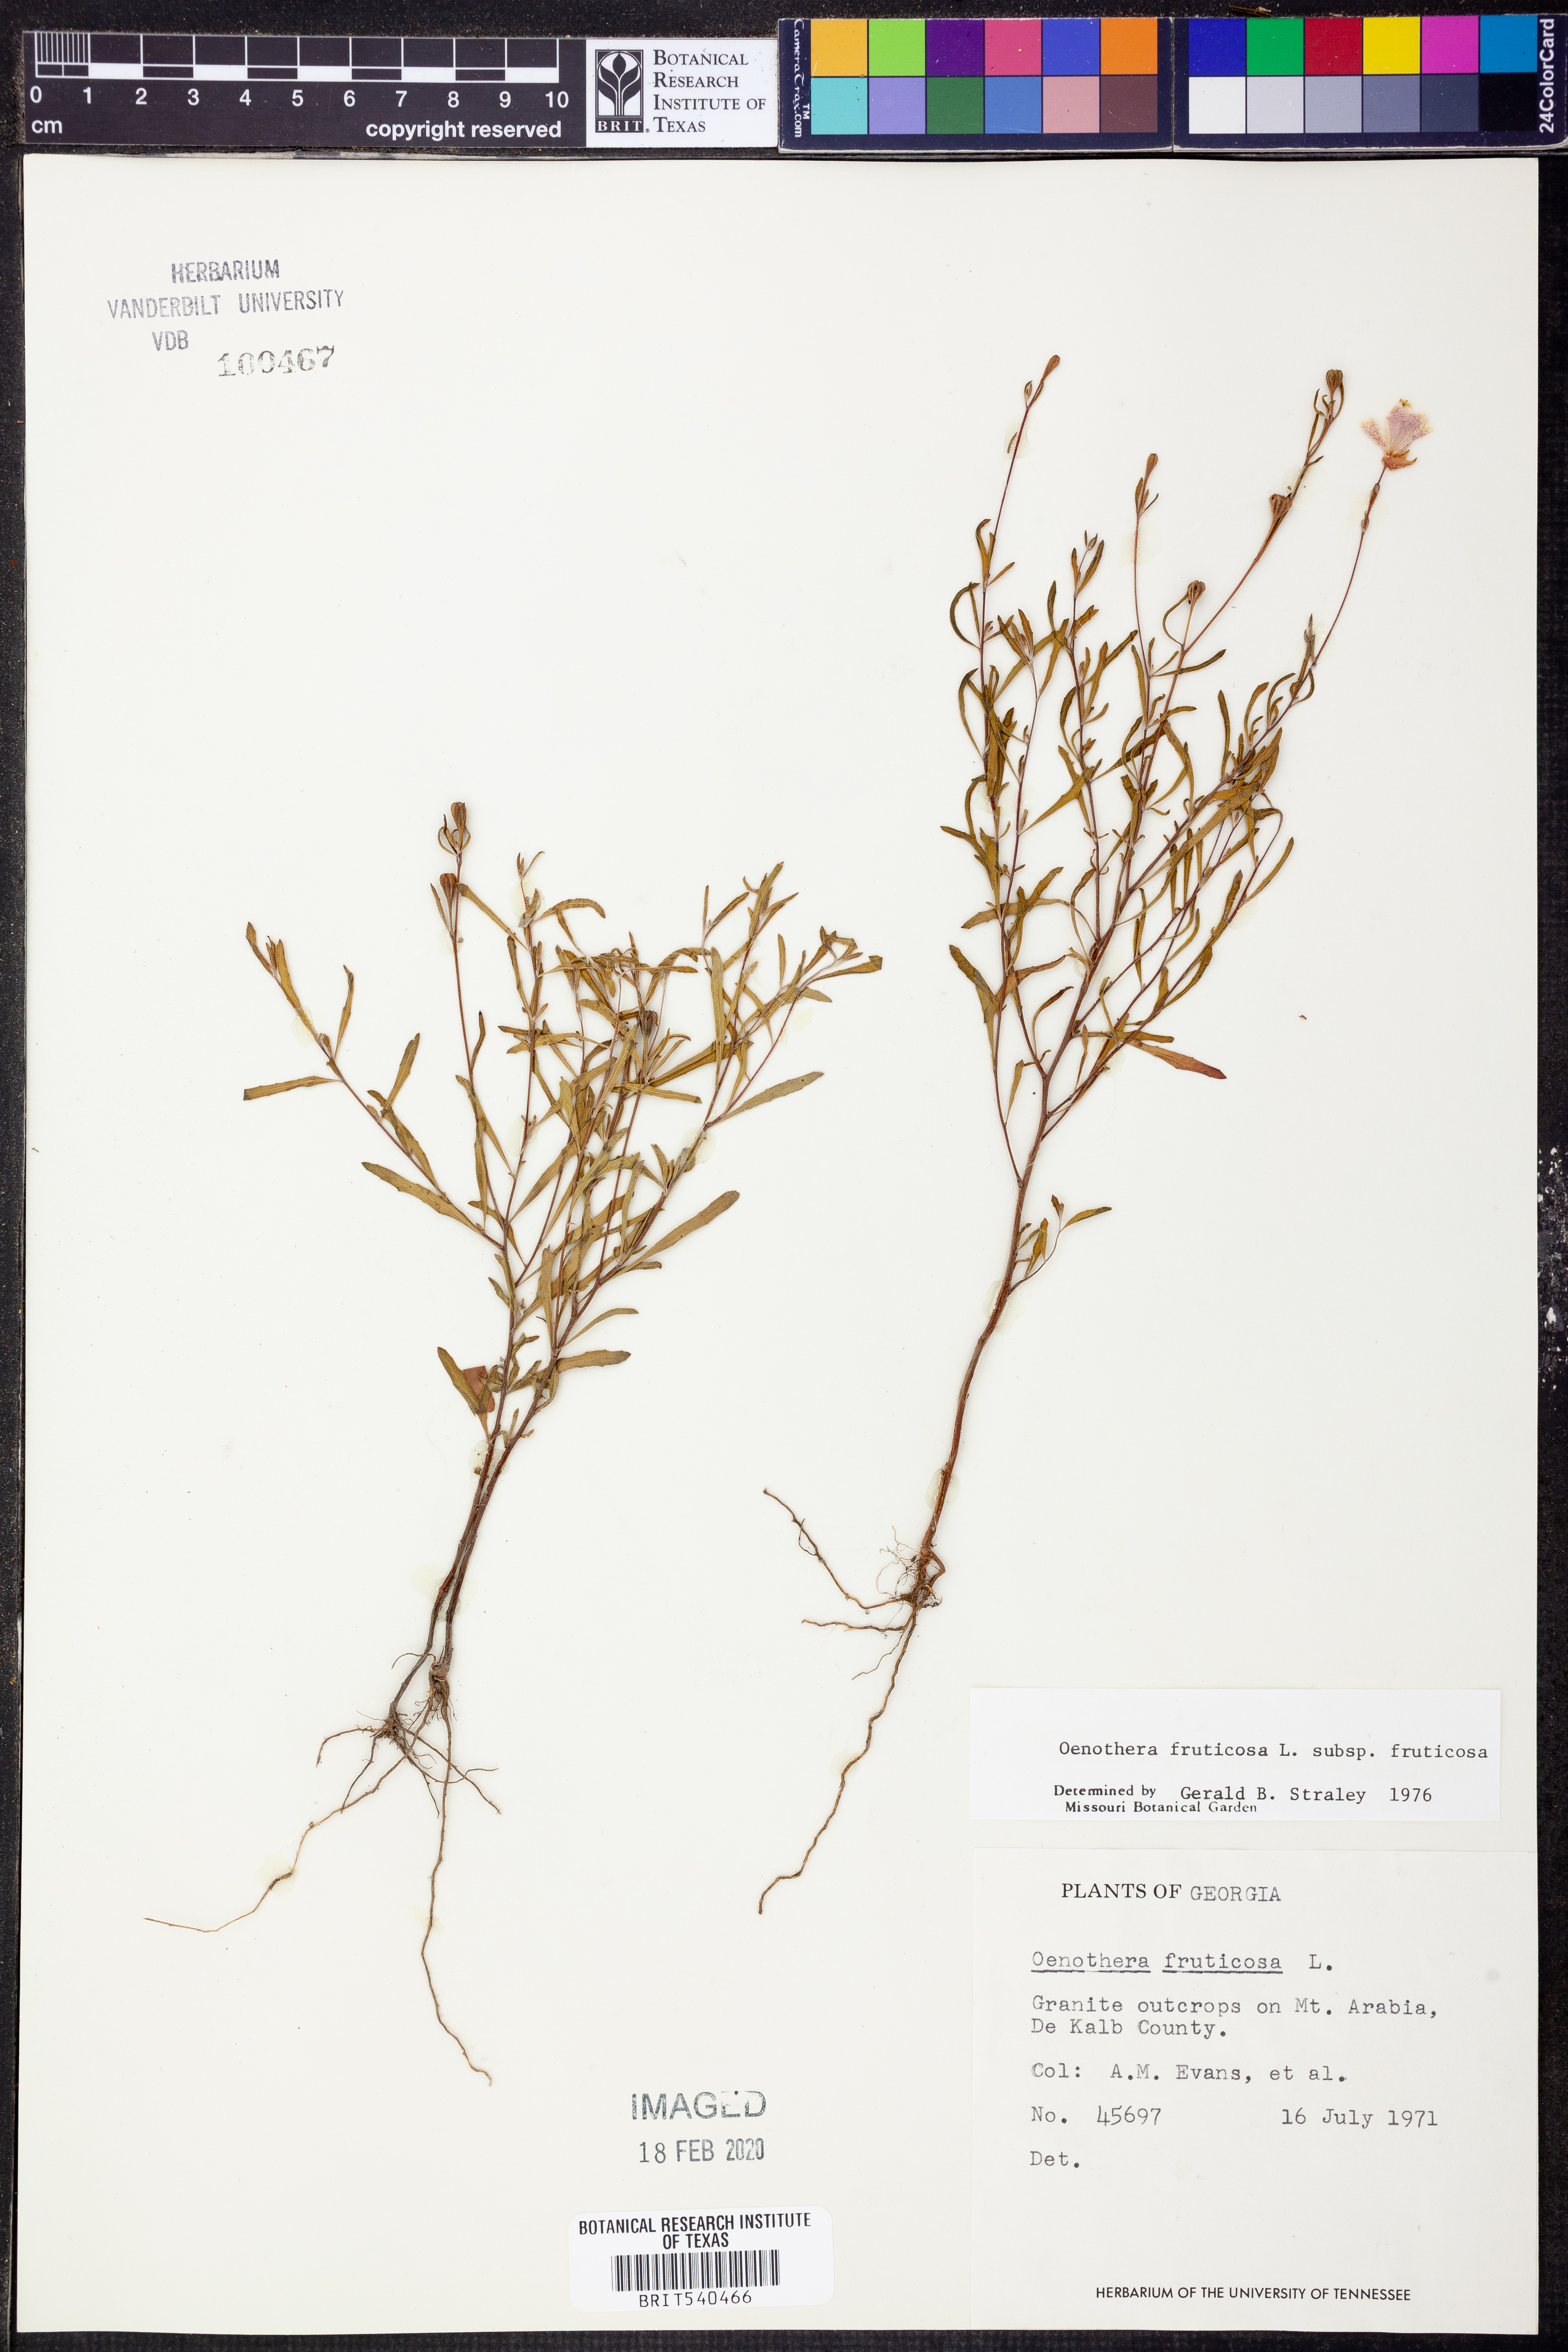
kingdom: Plantae
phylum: Tracheophyta
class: Magnoliopsida
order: Myrtales
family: Onagraceae
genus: Oenothera
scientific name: Oenothera fruticosa
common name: Southern sundrops
